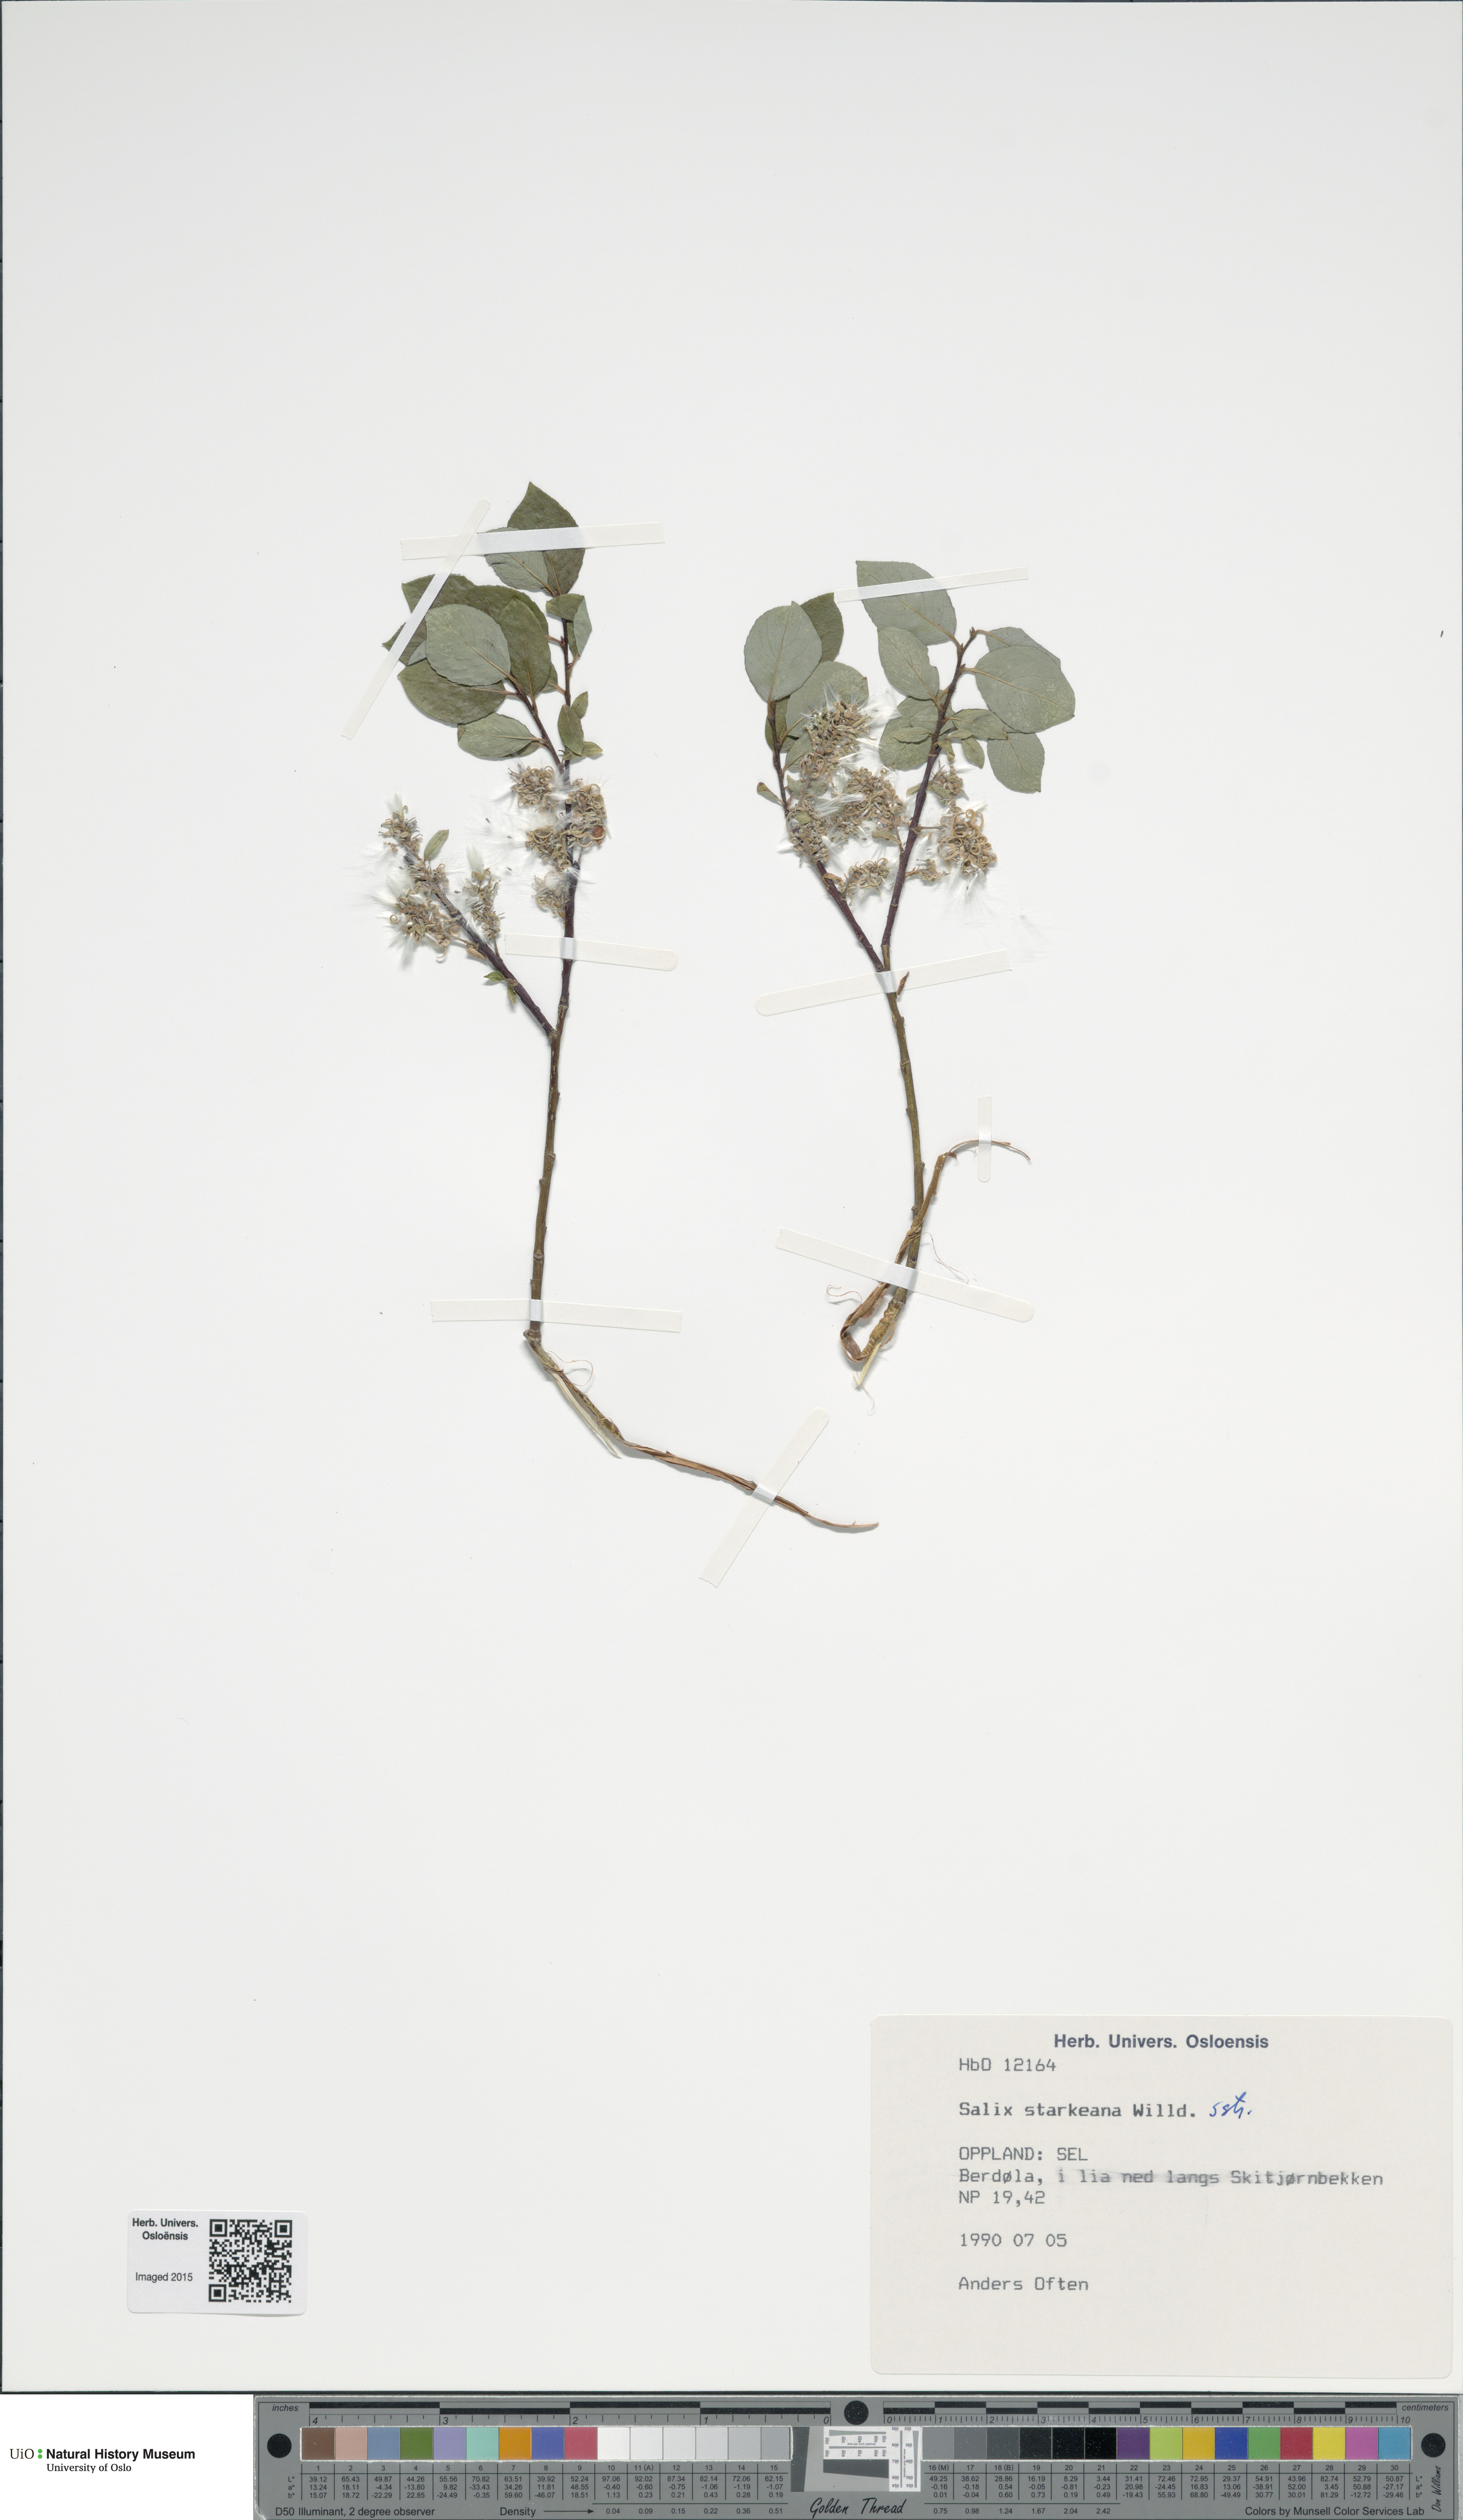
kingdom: Plantae
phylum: Tracheophyta
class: Magnoliopsida
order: Malpighiales
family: Salicaceae
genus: Salix
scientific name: Salix starkeana
